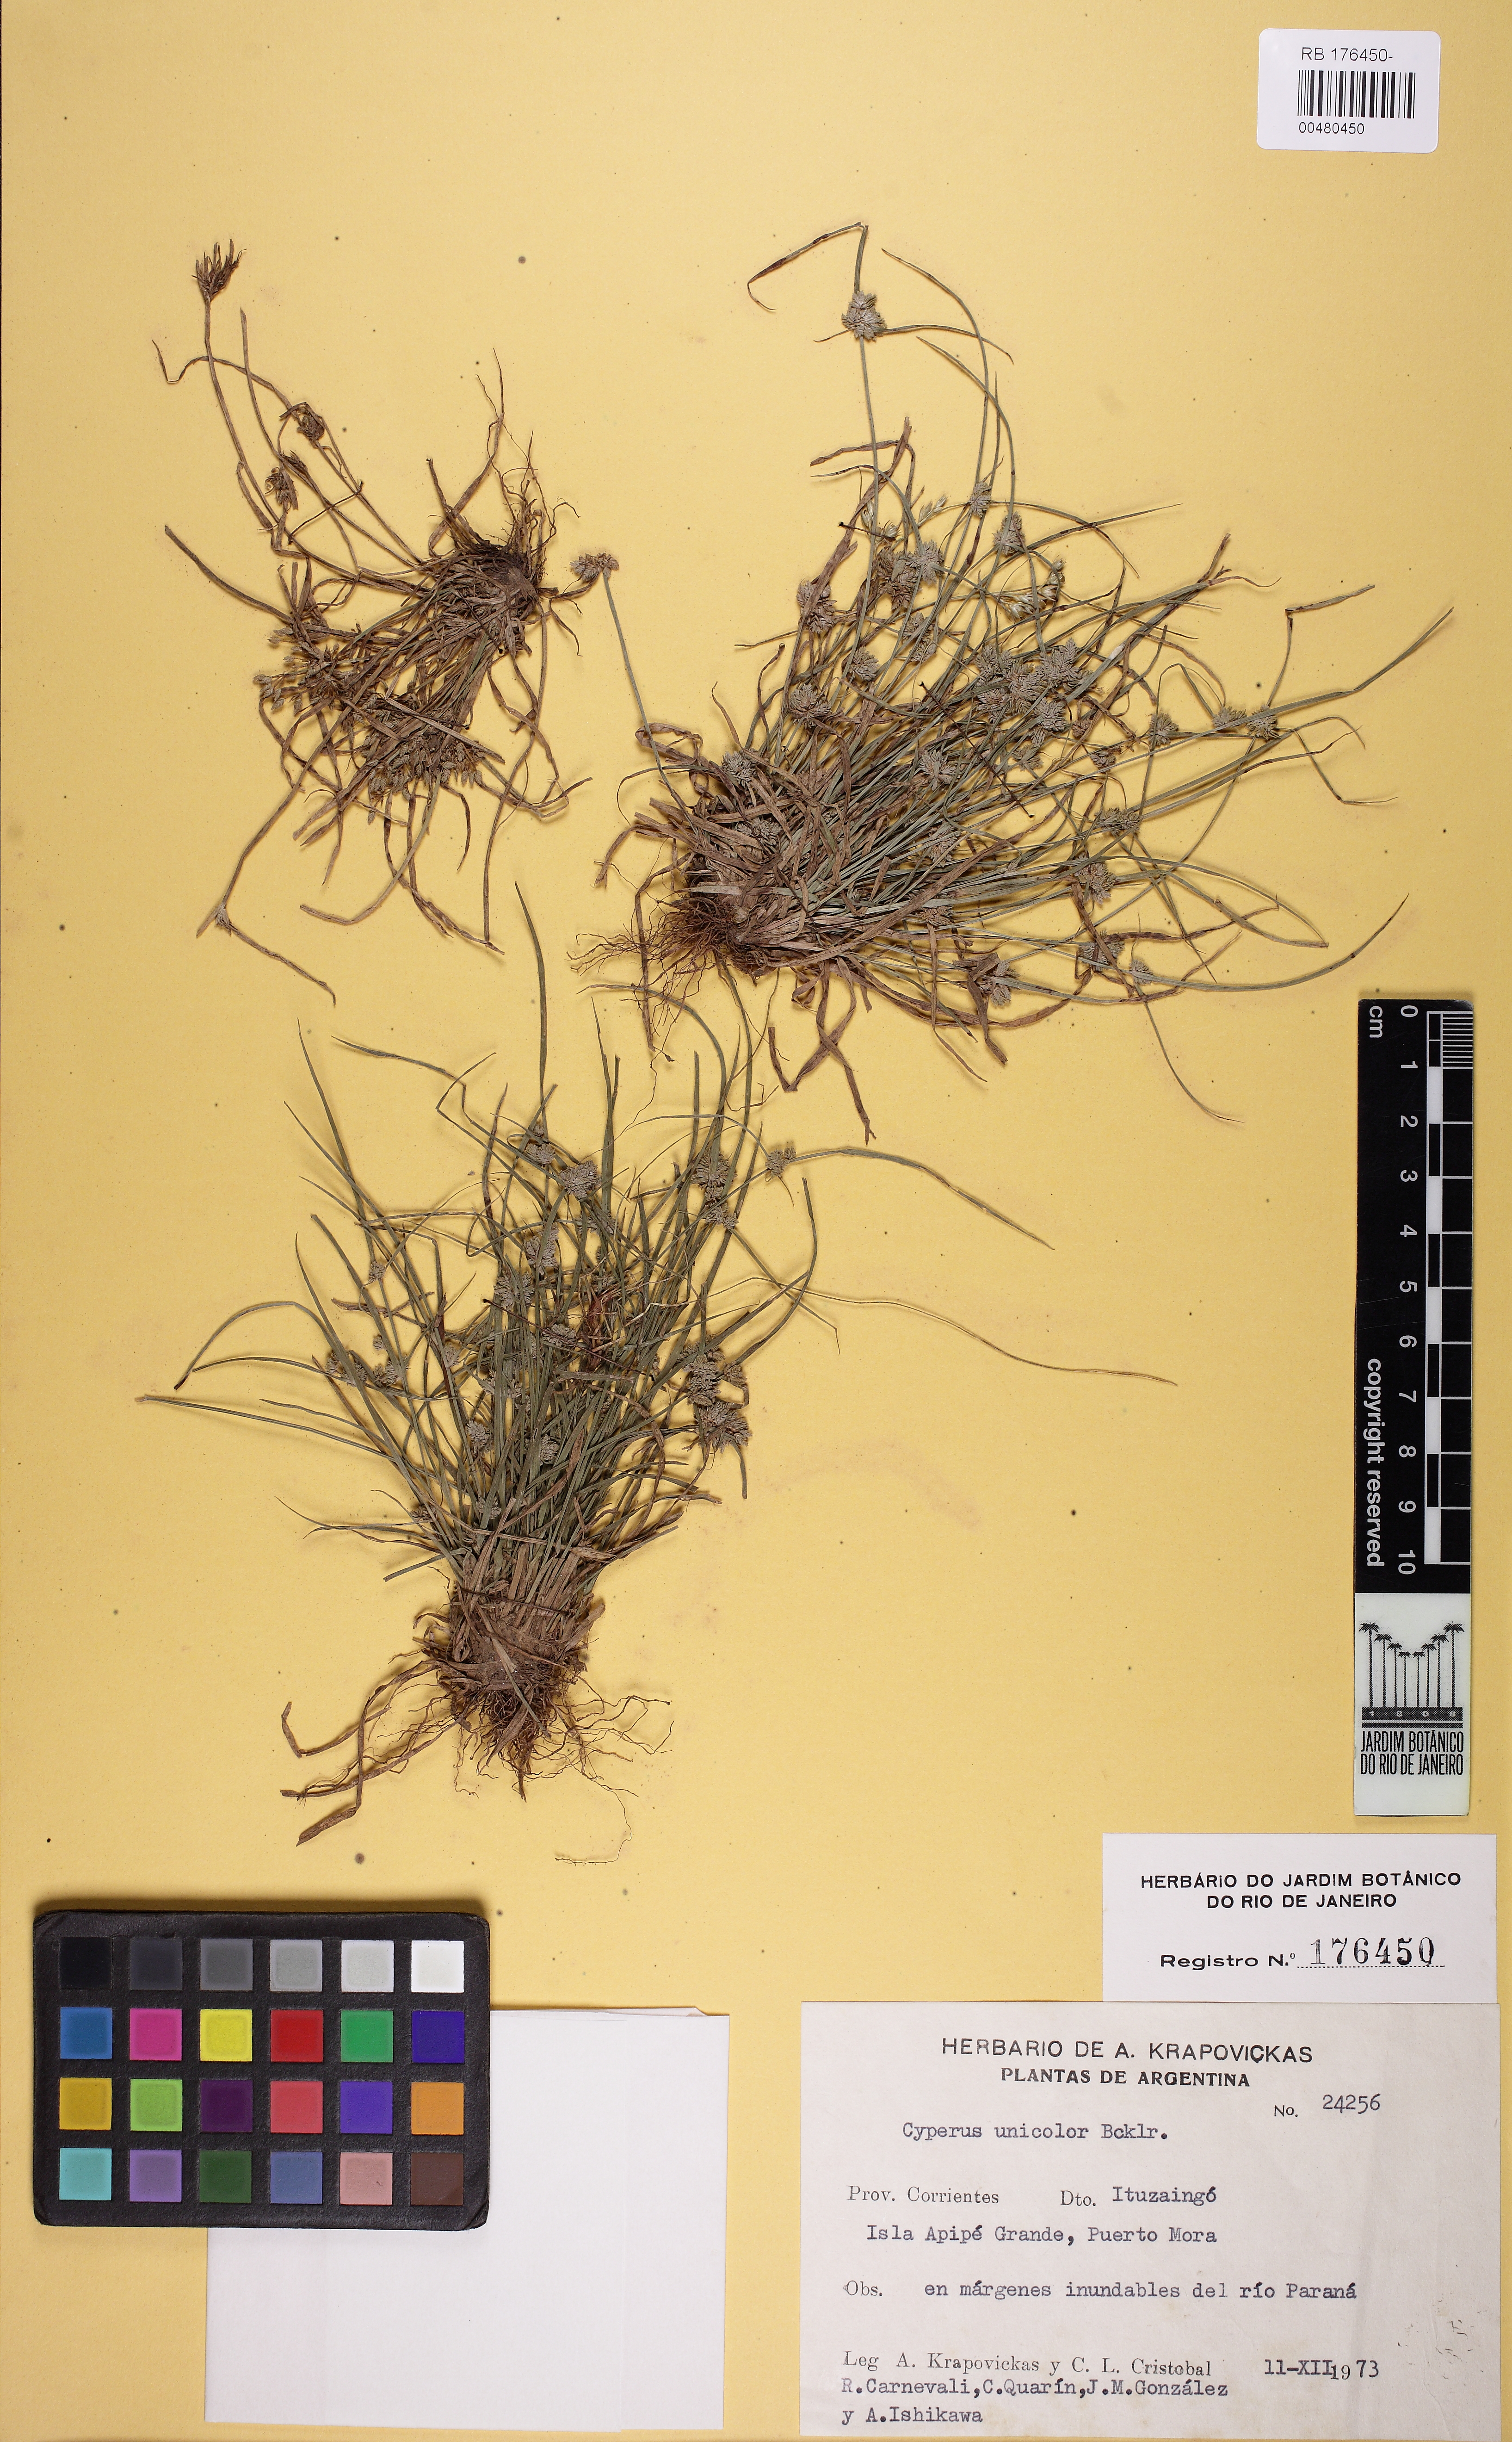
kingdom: Plantae
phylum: Tracheophyta
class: Liliopsida
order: Poales
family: Cyperaceae
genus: Cyperus
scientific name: Cyperus unicolor
